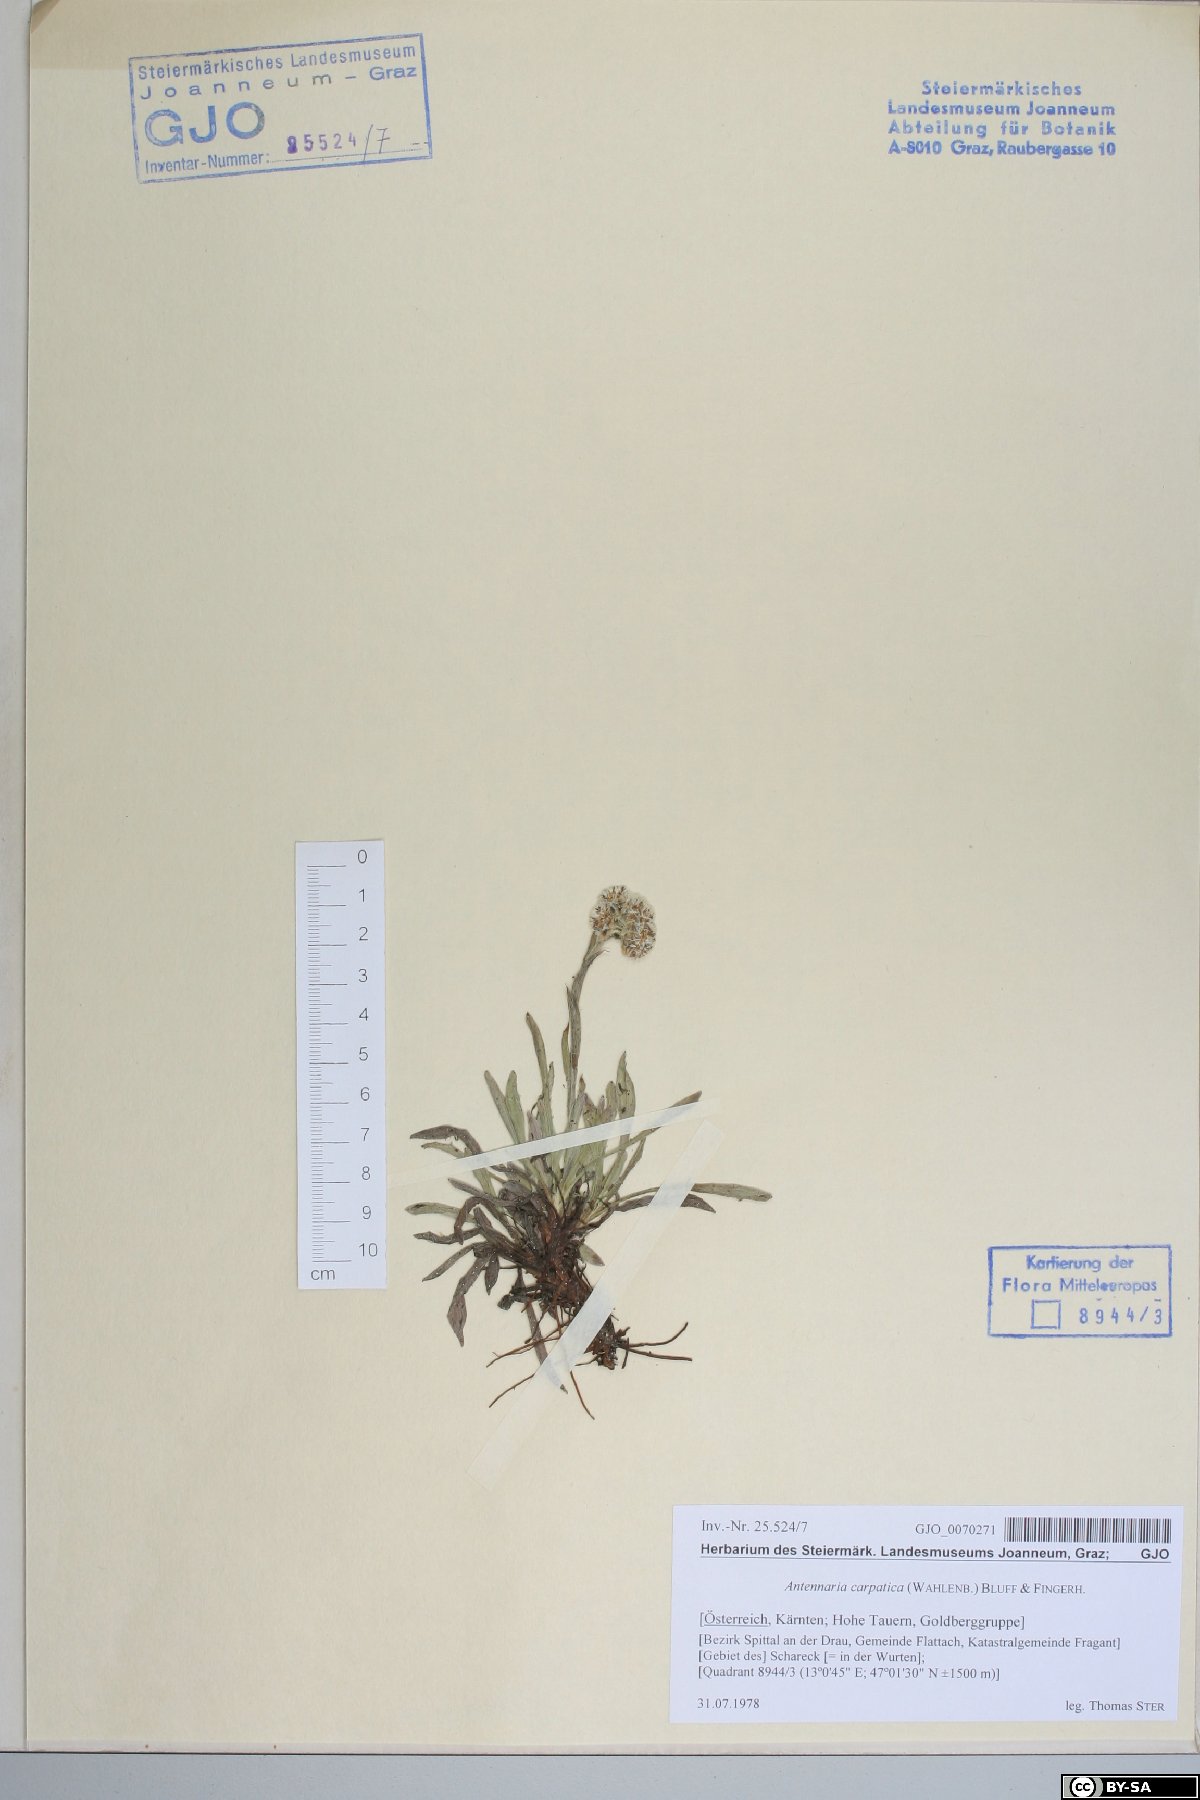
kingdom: Plantae
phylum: Tracheophyta
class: Magnoliopsida
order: Asterales
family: Asteraceae
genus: Antennaria
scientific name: Antennaria carpatica
